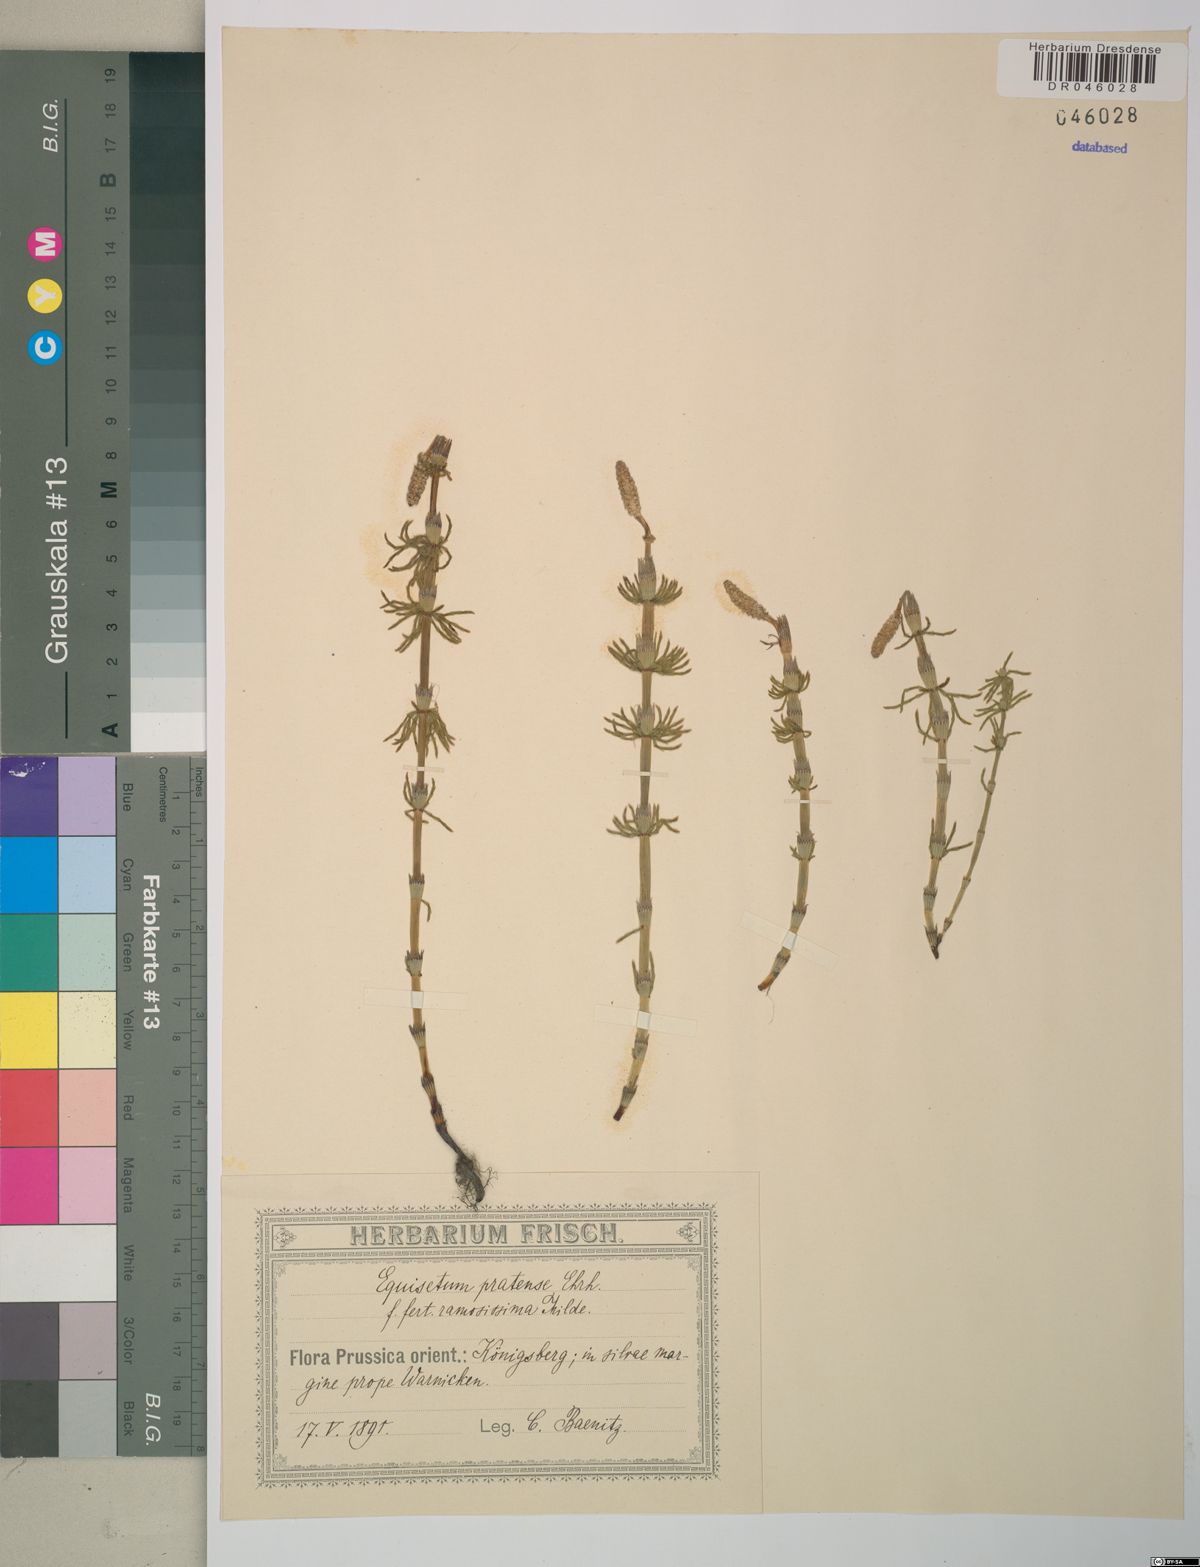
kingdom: Plantae
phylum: Tracheophyta
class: Polypodiopsida
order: Equisetales
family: Equisetaceae
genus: Equisetum
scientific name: Equisetum pratense
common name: Meadow horsetail
